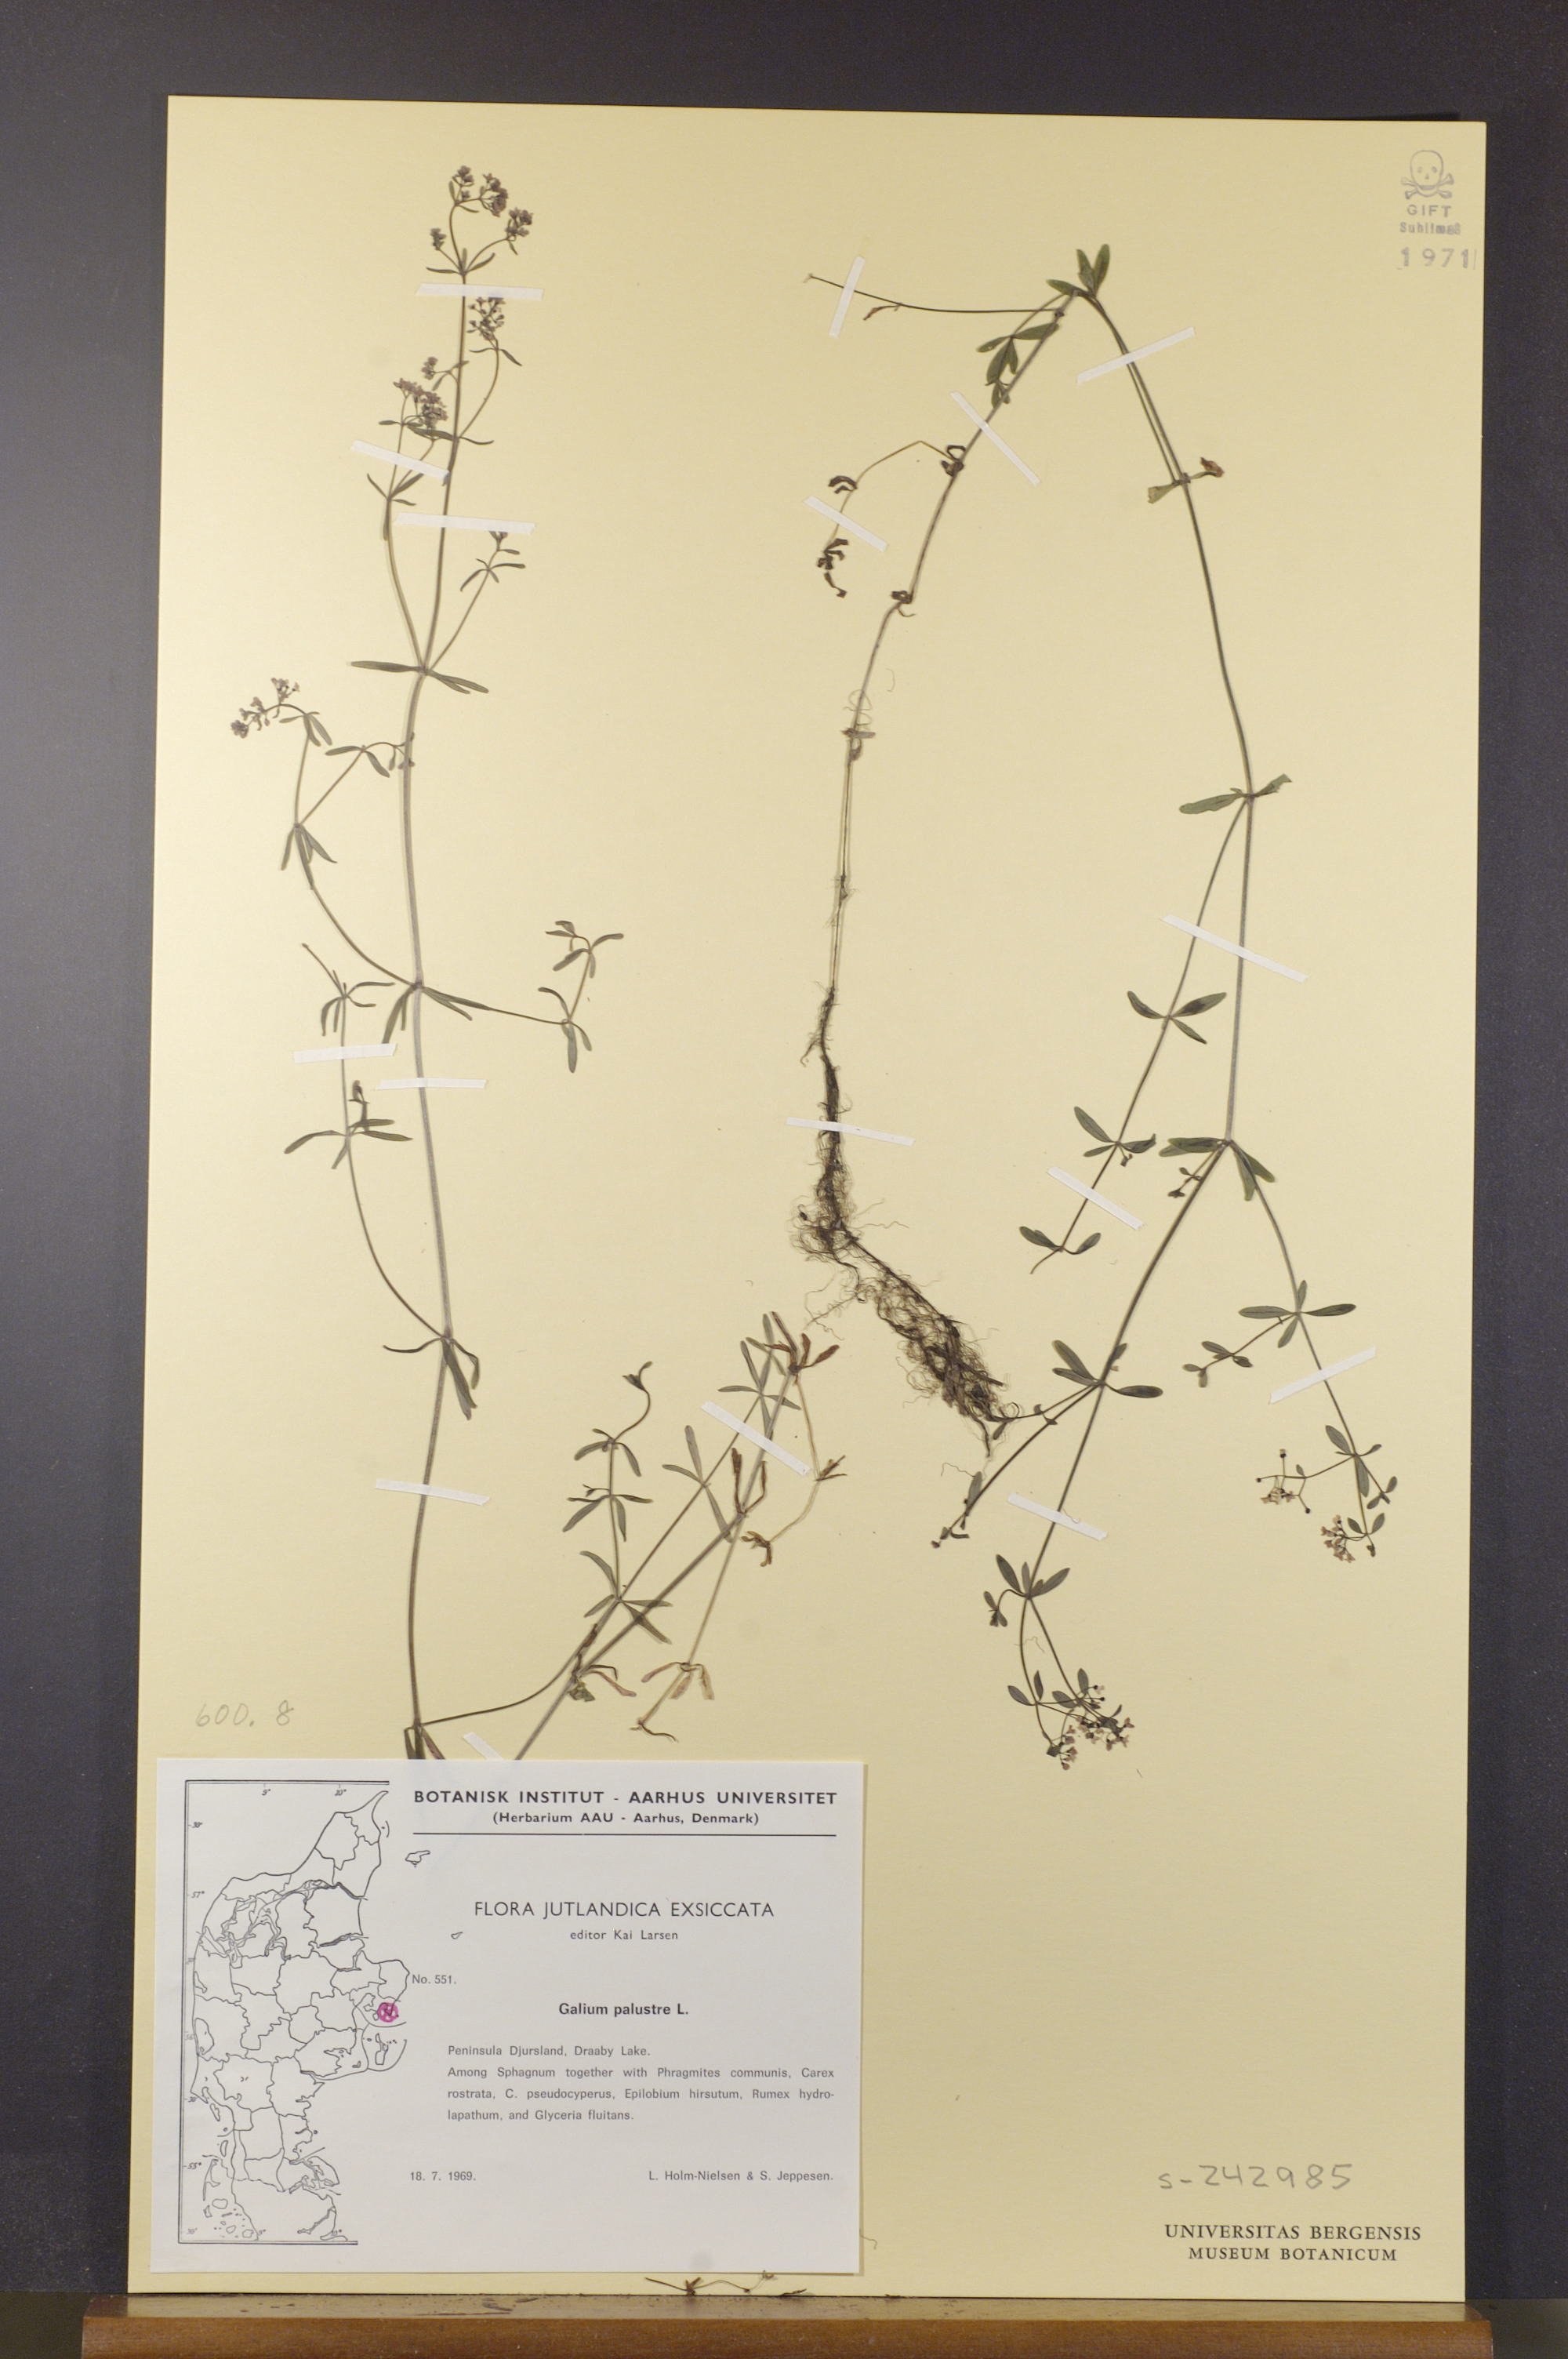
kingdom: Plantae
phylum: Tracheophyta
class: Magnoliopsida
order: Gentianales
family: Rubiaceae
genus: Galium
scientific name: Galium palustre
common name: Common marsh-bedstraw
